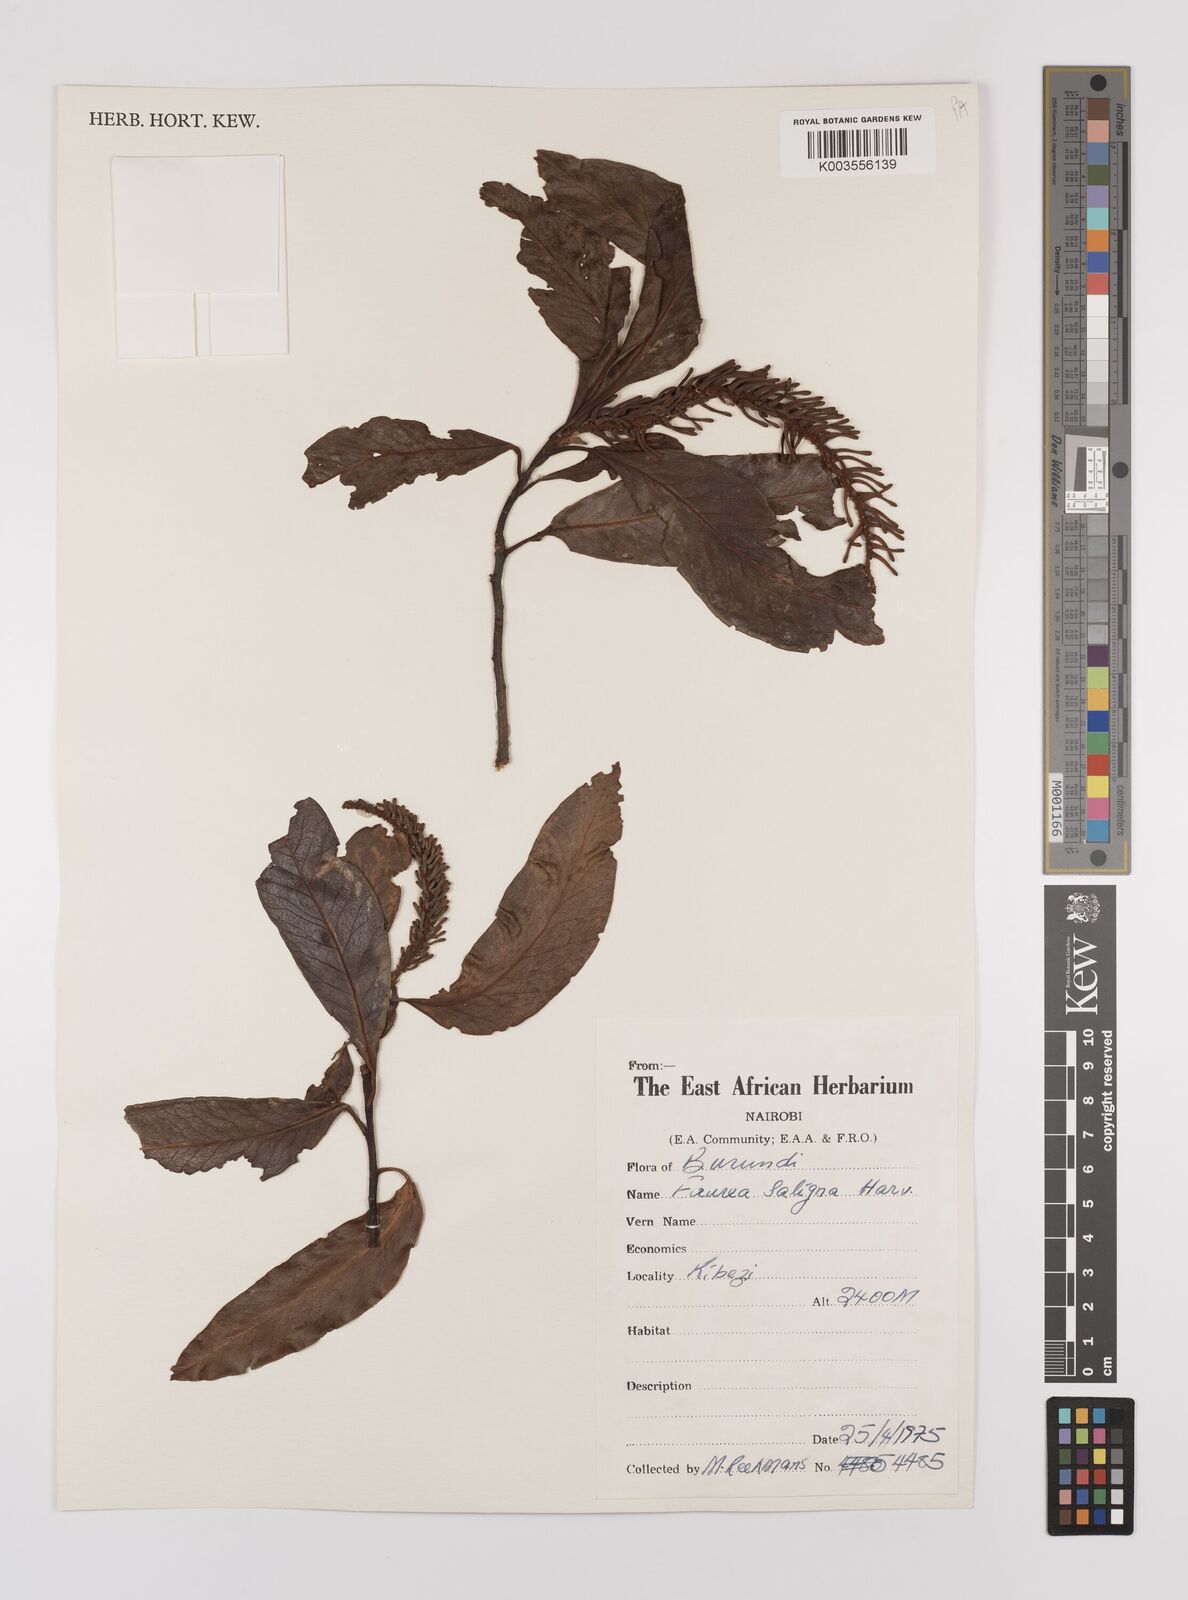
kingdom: Plantae
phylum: Tracheophyta
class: Magnoliopsida
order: Proteales
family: Proteaceae
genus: Faurea
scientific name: Faurea saligna
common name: African bean
